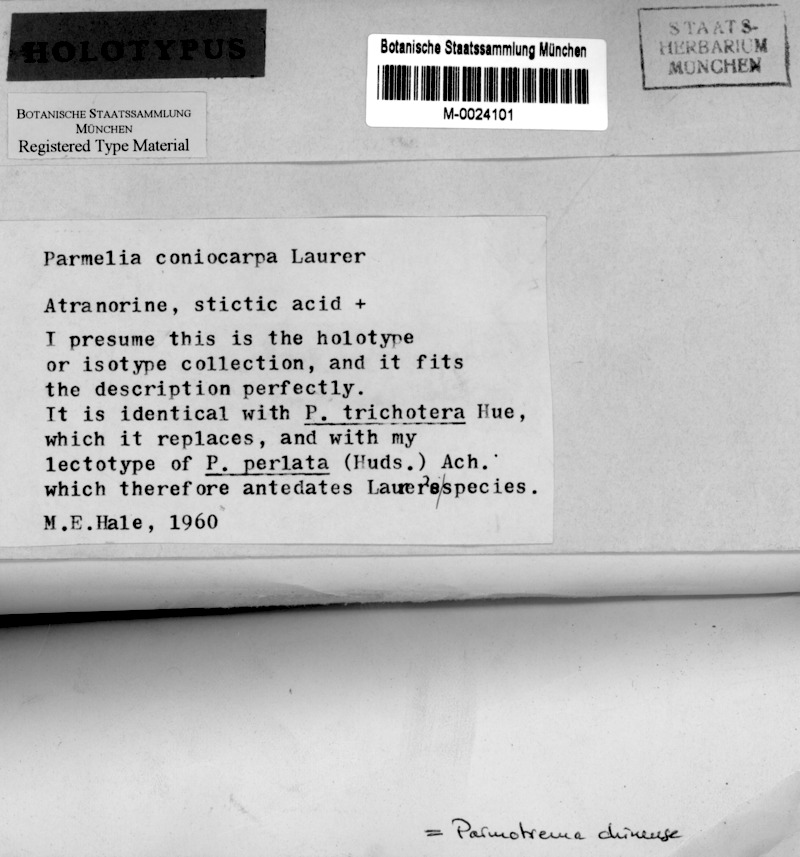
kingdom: Fungi
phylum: Ascomycota
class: Lecanoromycetes
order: Lecanorales
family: Parmeliaceae
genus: Parmotrema
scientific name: Parmotrema tinctorum
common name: Old gray ruffles
